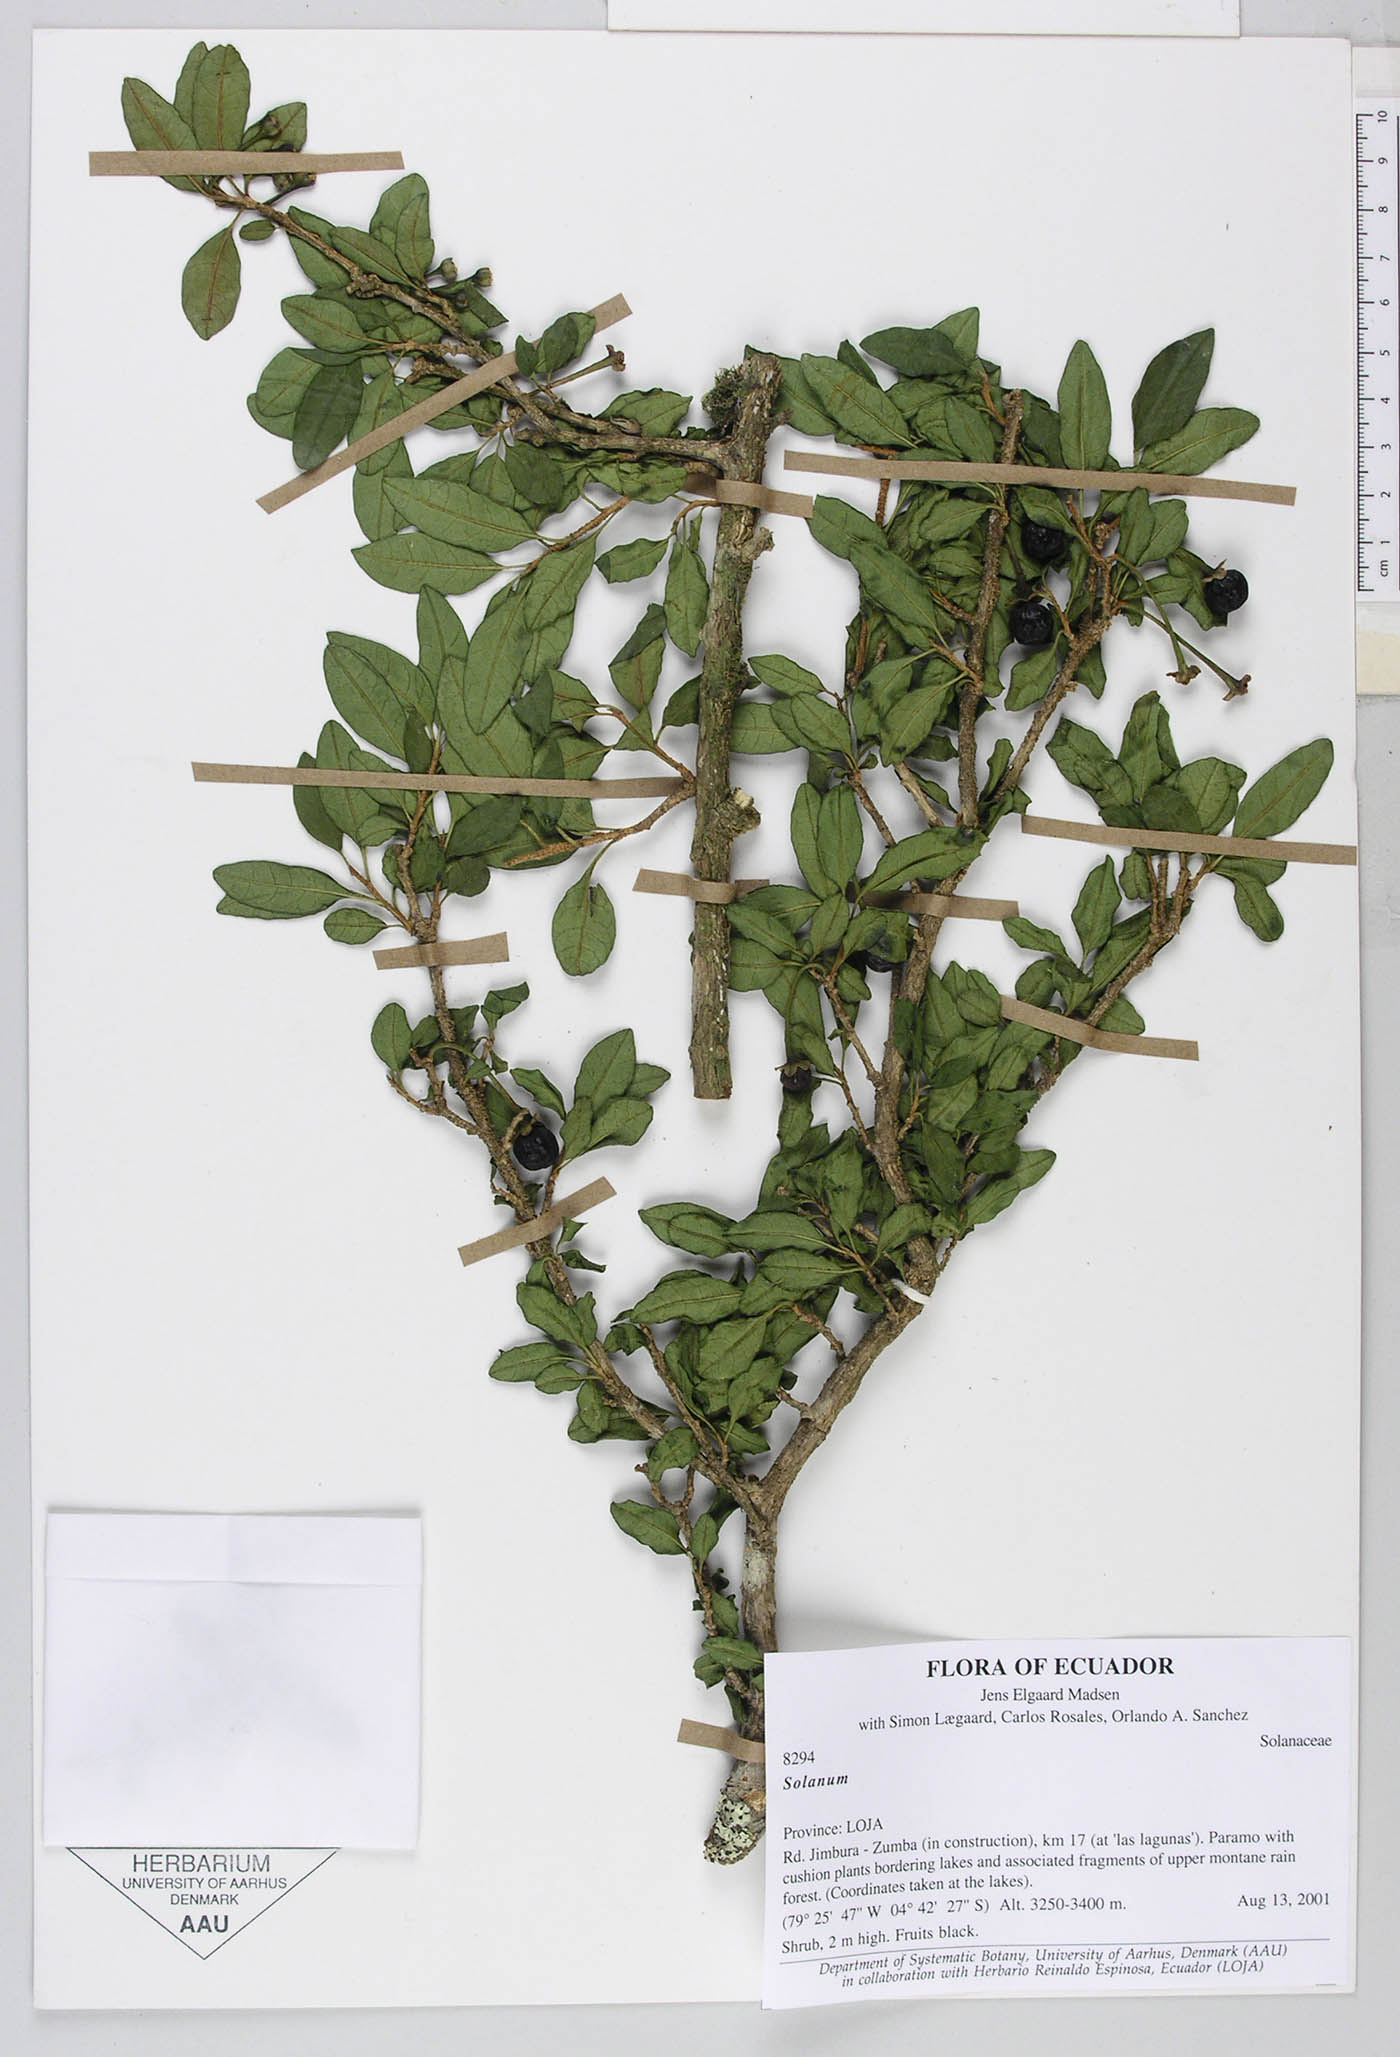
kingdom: Plantae
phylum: Tracheophyta
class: Magnoliopsida
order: Solanales
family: Solanaceae
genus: Saracha
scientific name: Saracha punctata
